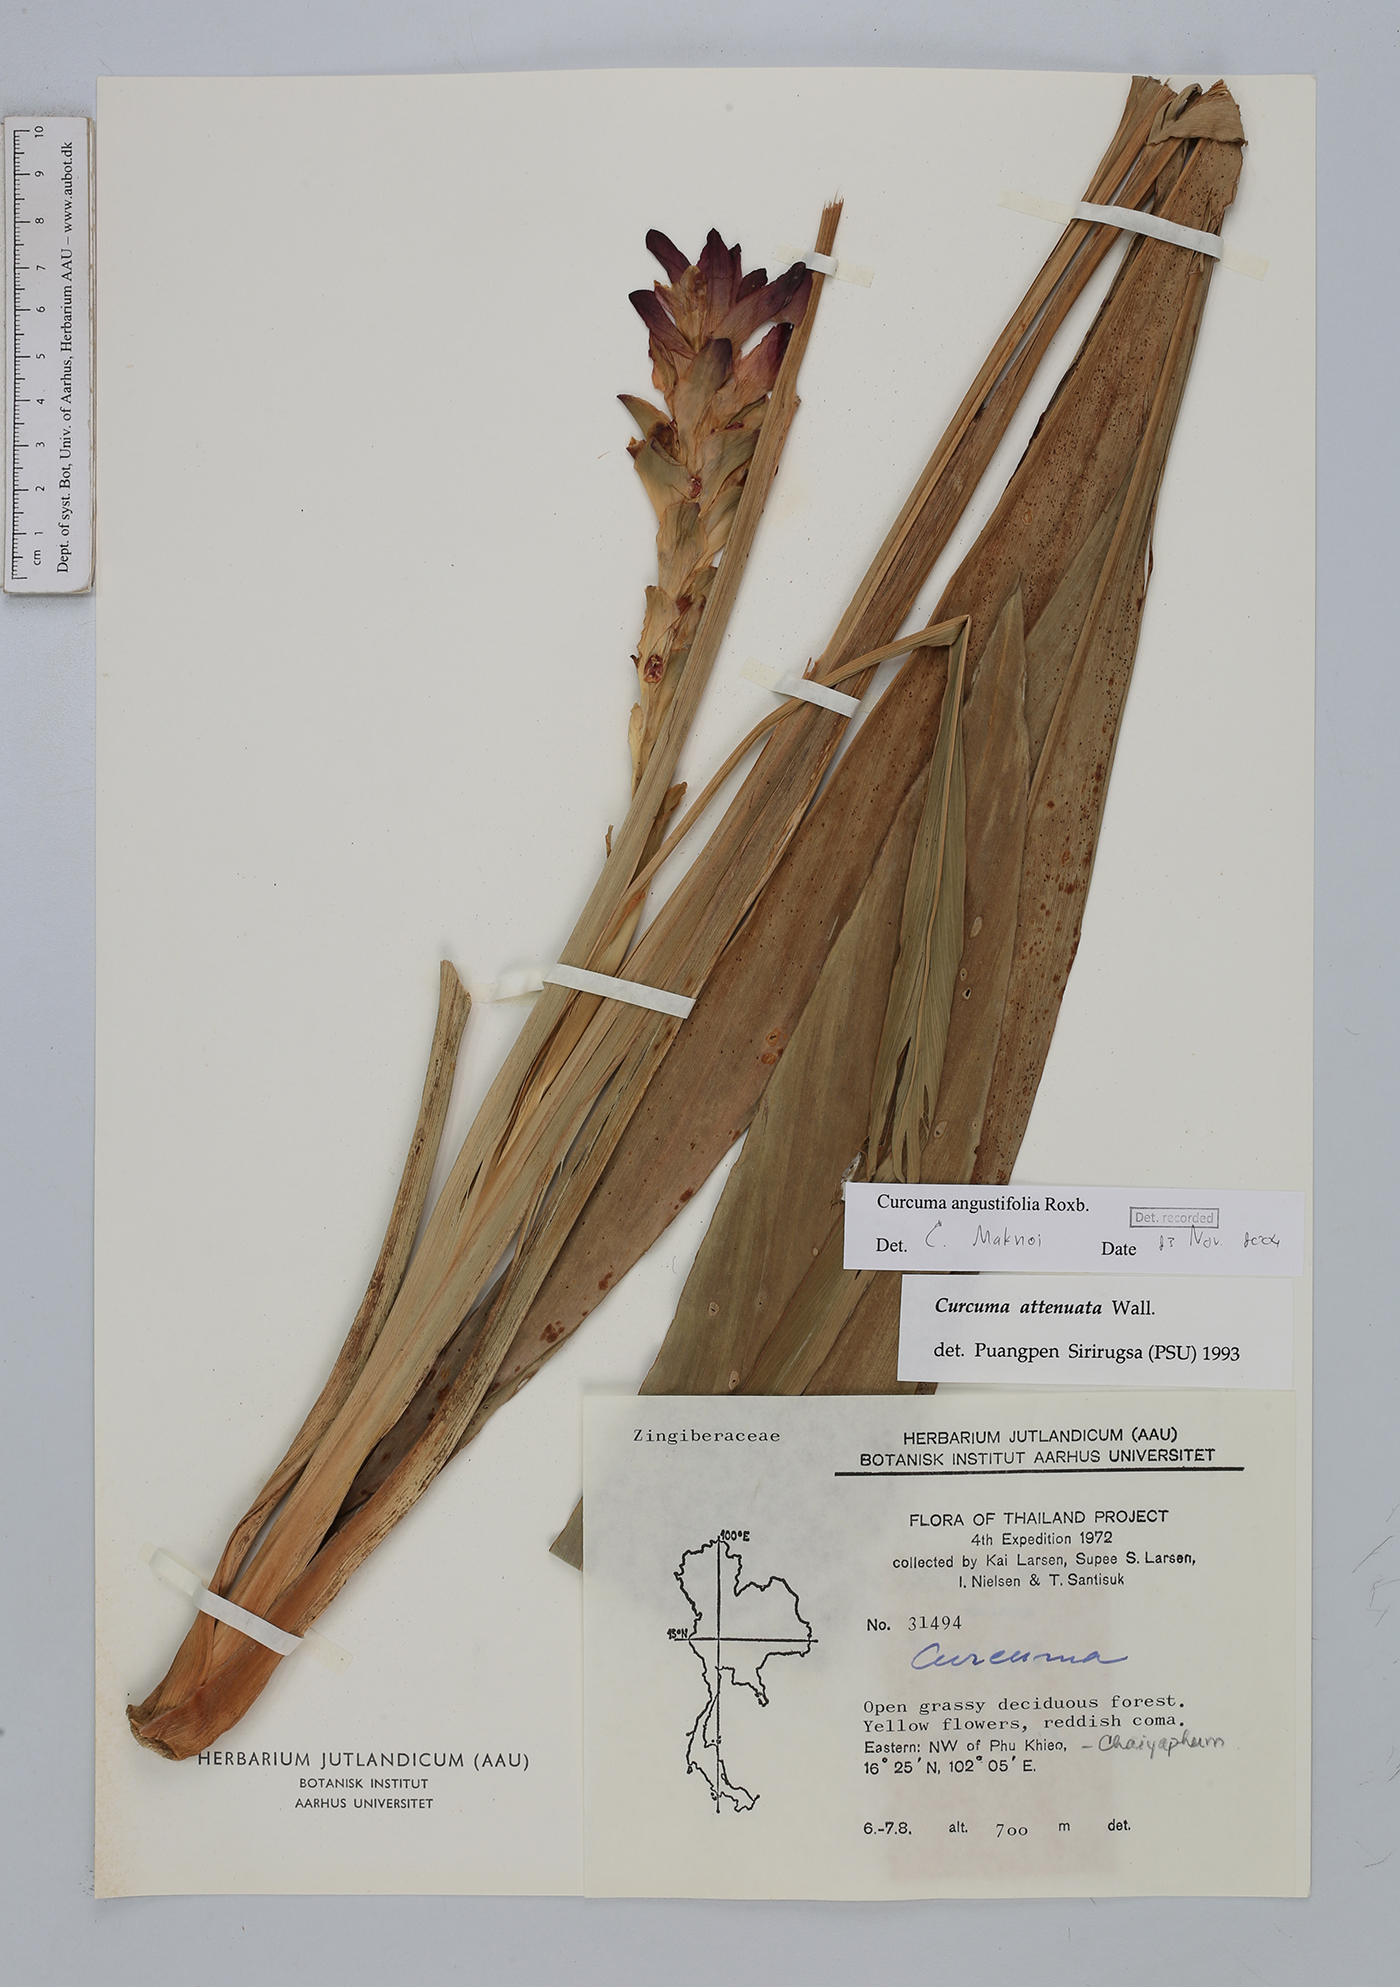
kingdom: Plantae
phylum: Tracheophyta
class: Liliopsida
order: Zingiberales
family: Zingiberaceae
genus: Curcuma
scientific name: Curcuma angustifolia
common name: East indian arrowroot
